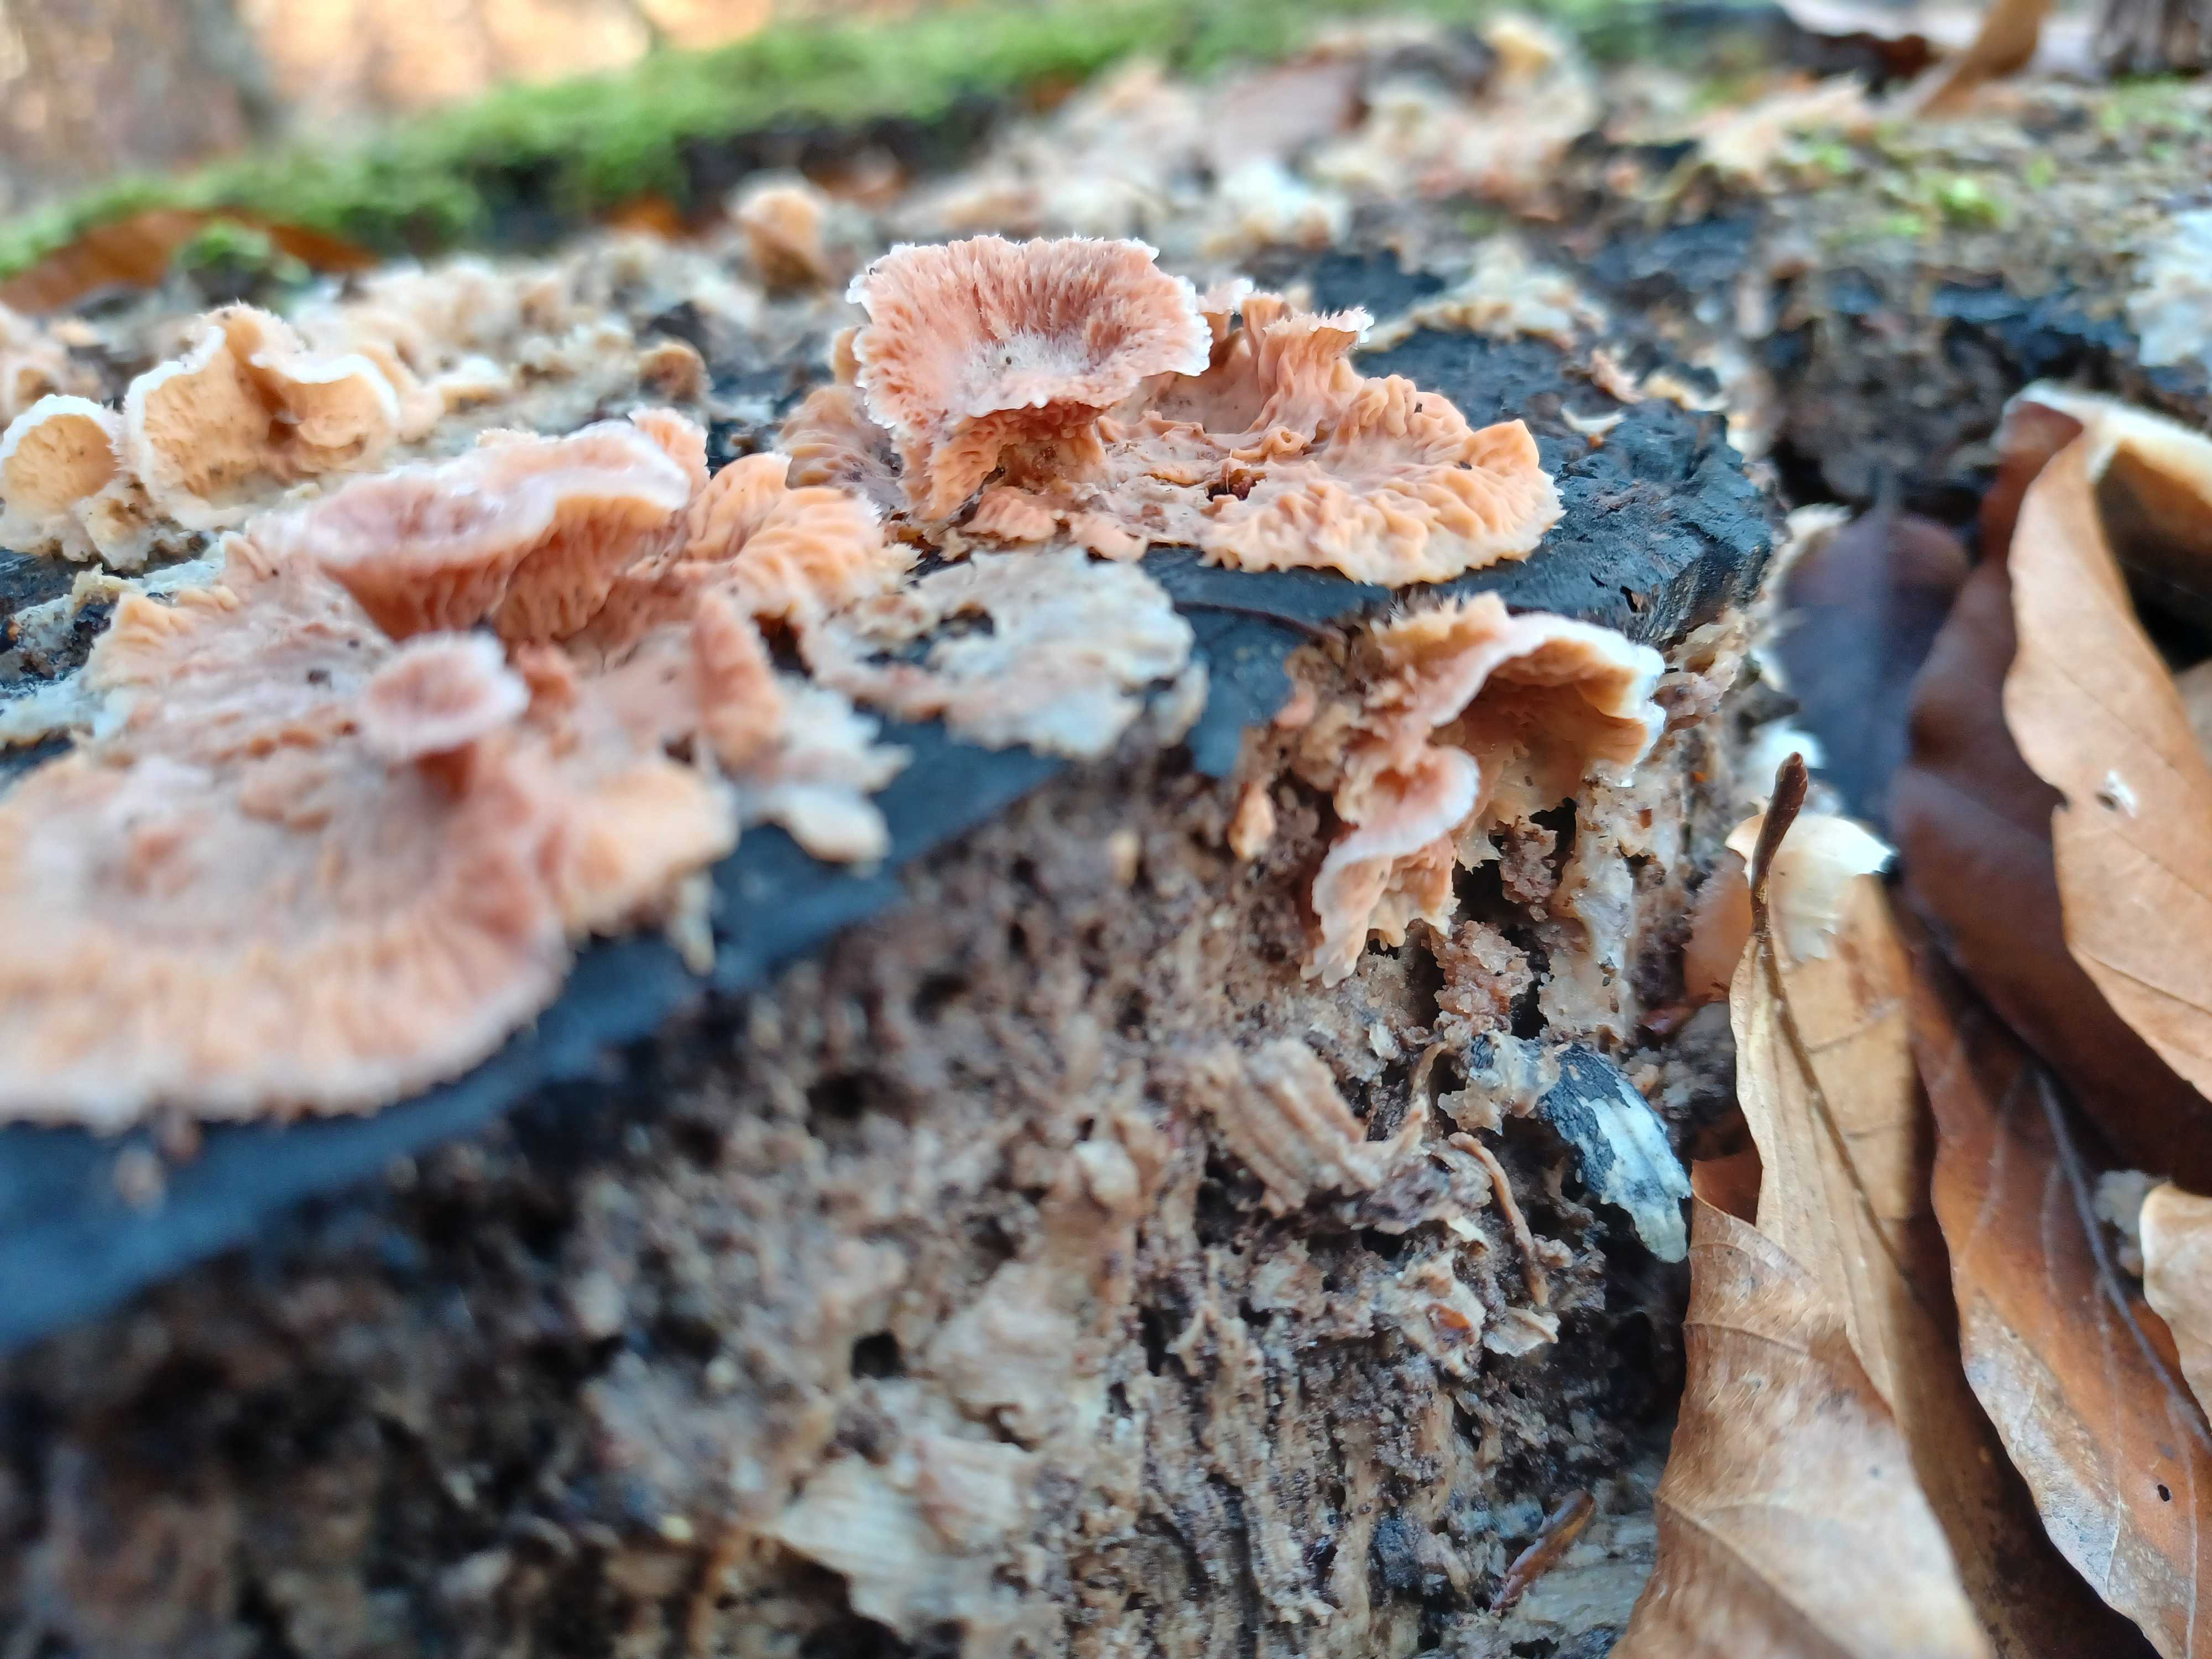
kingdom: Fungi
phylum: Basidiomycota
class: Agaricomycetes
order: Polyporales
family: Meruliaceae
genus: Phlebia
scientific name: Phlebia radiata
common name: stråle-åresvamp
